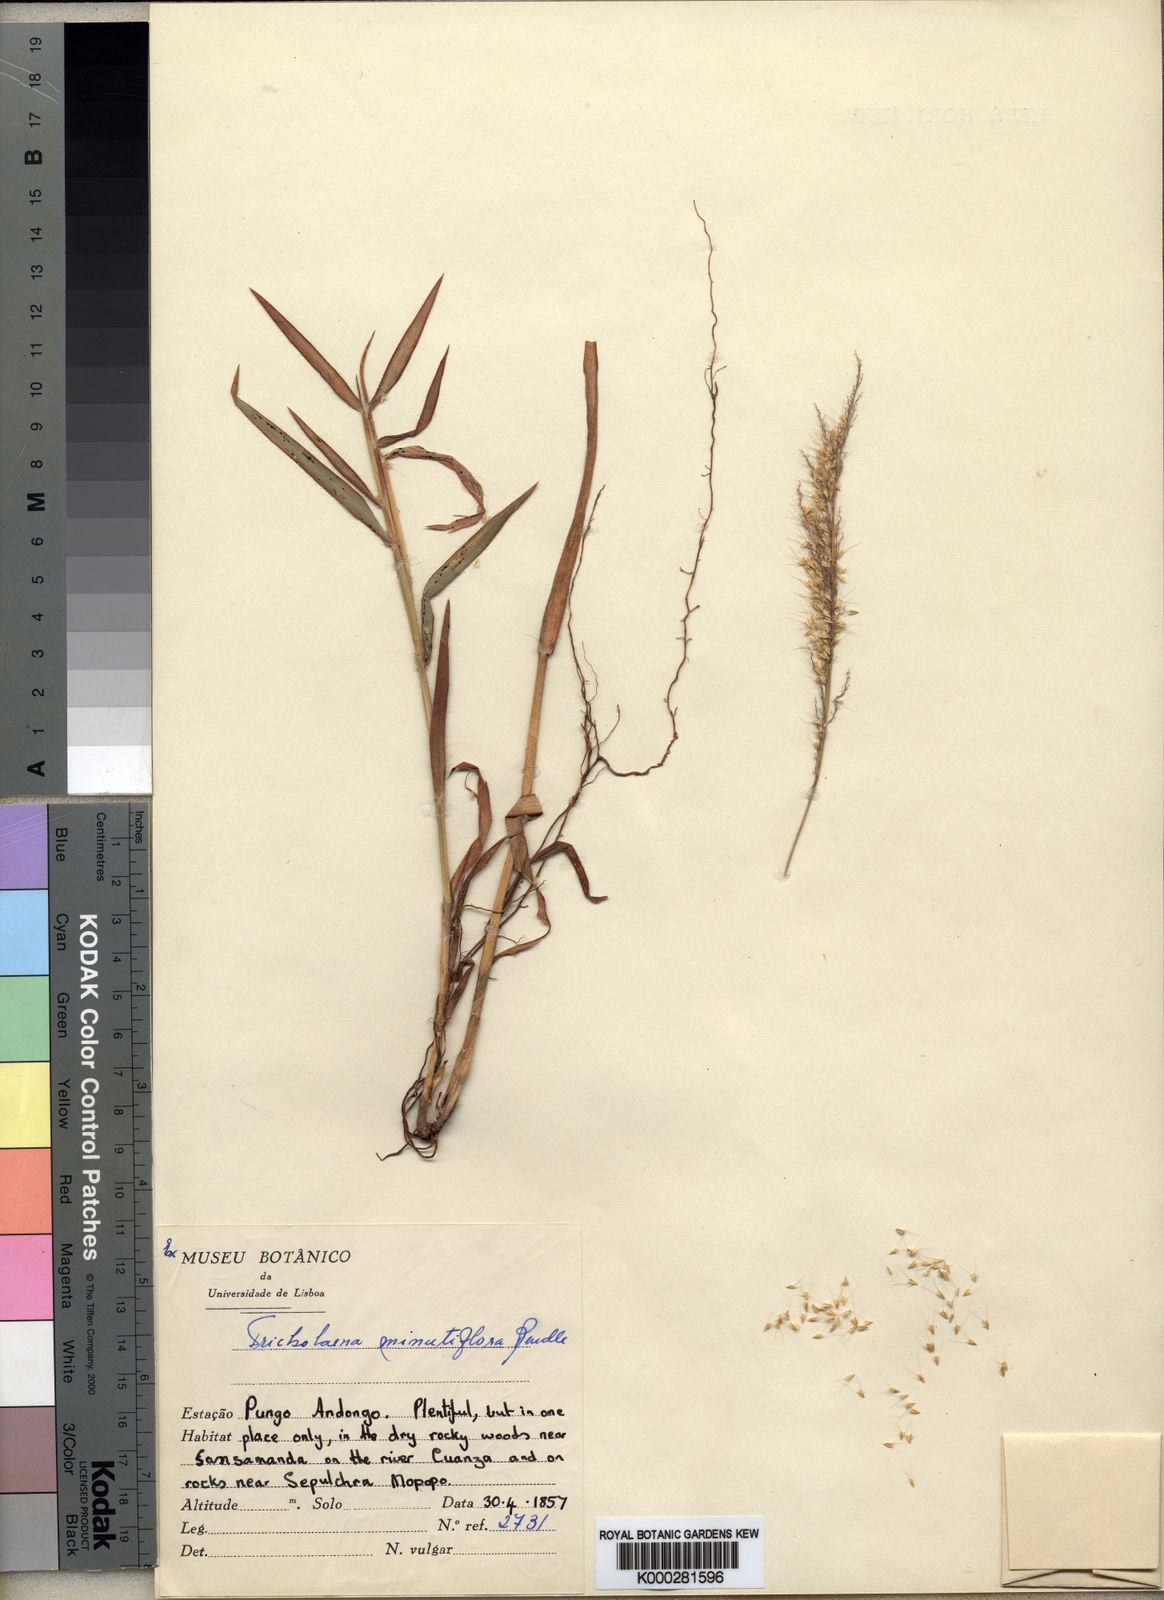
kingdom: Plantae
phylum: Tracheophyta
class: Liliopsida
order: Poales
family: Poaceae
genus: Melinis
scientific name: Melinis longiseta
